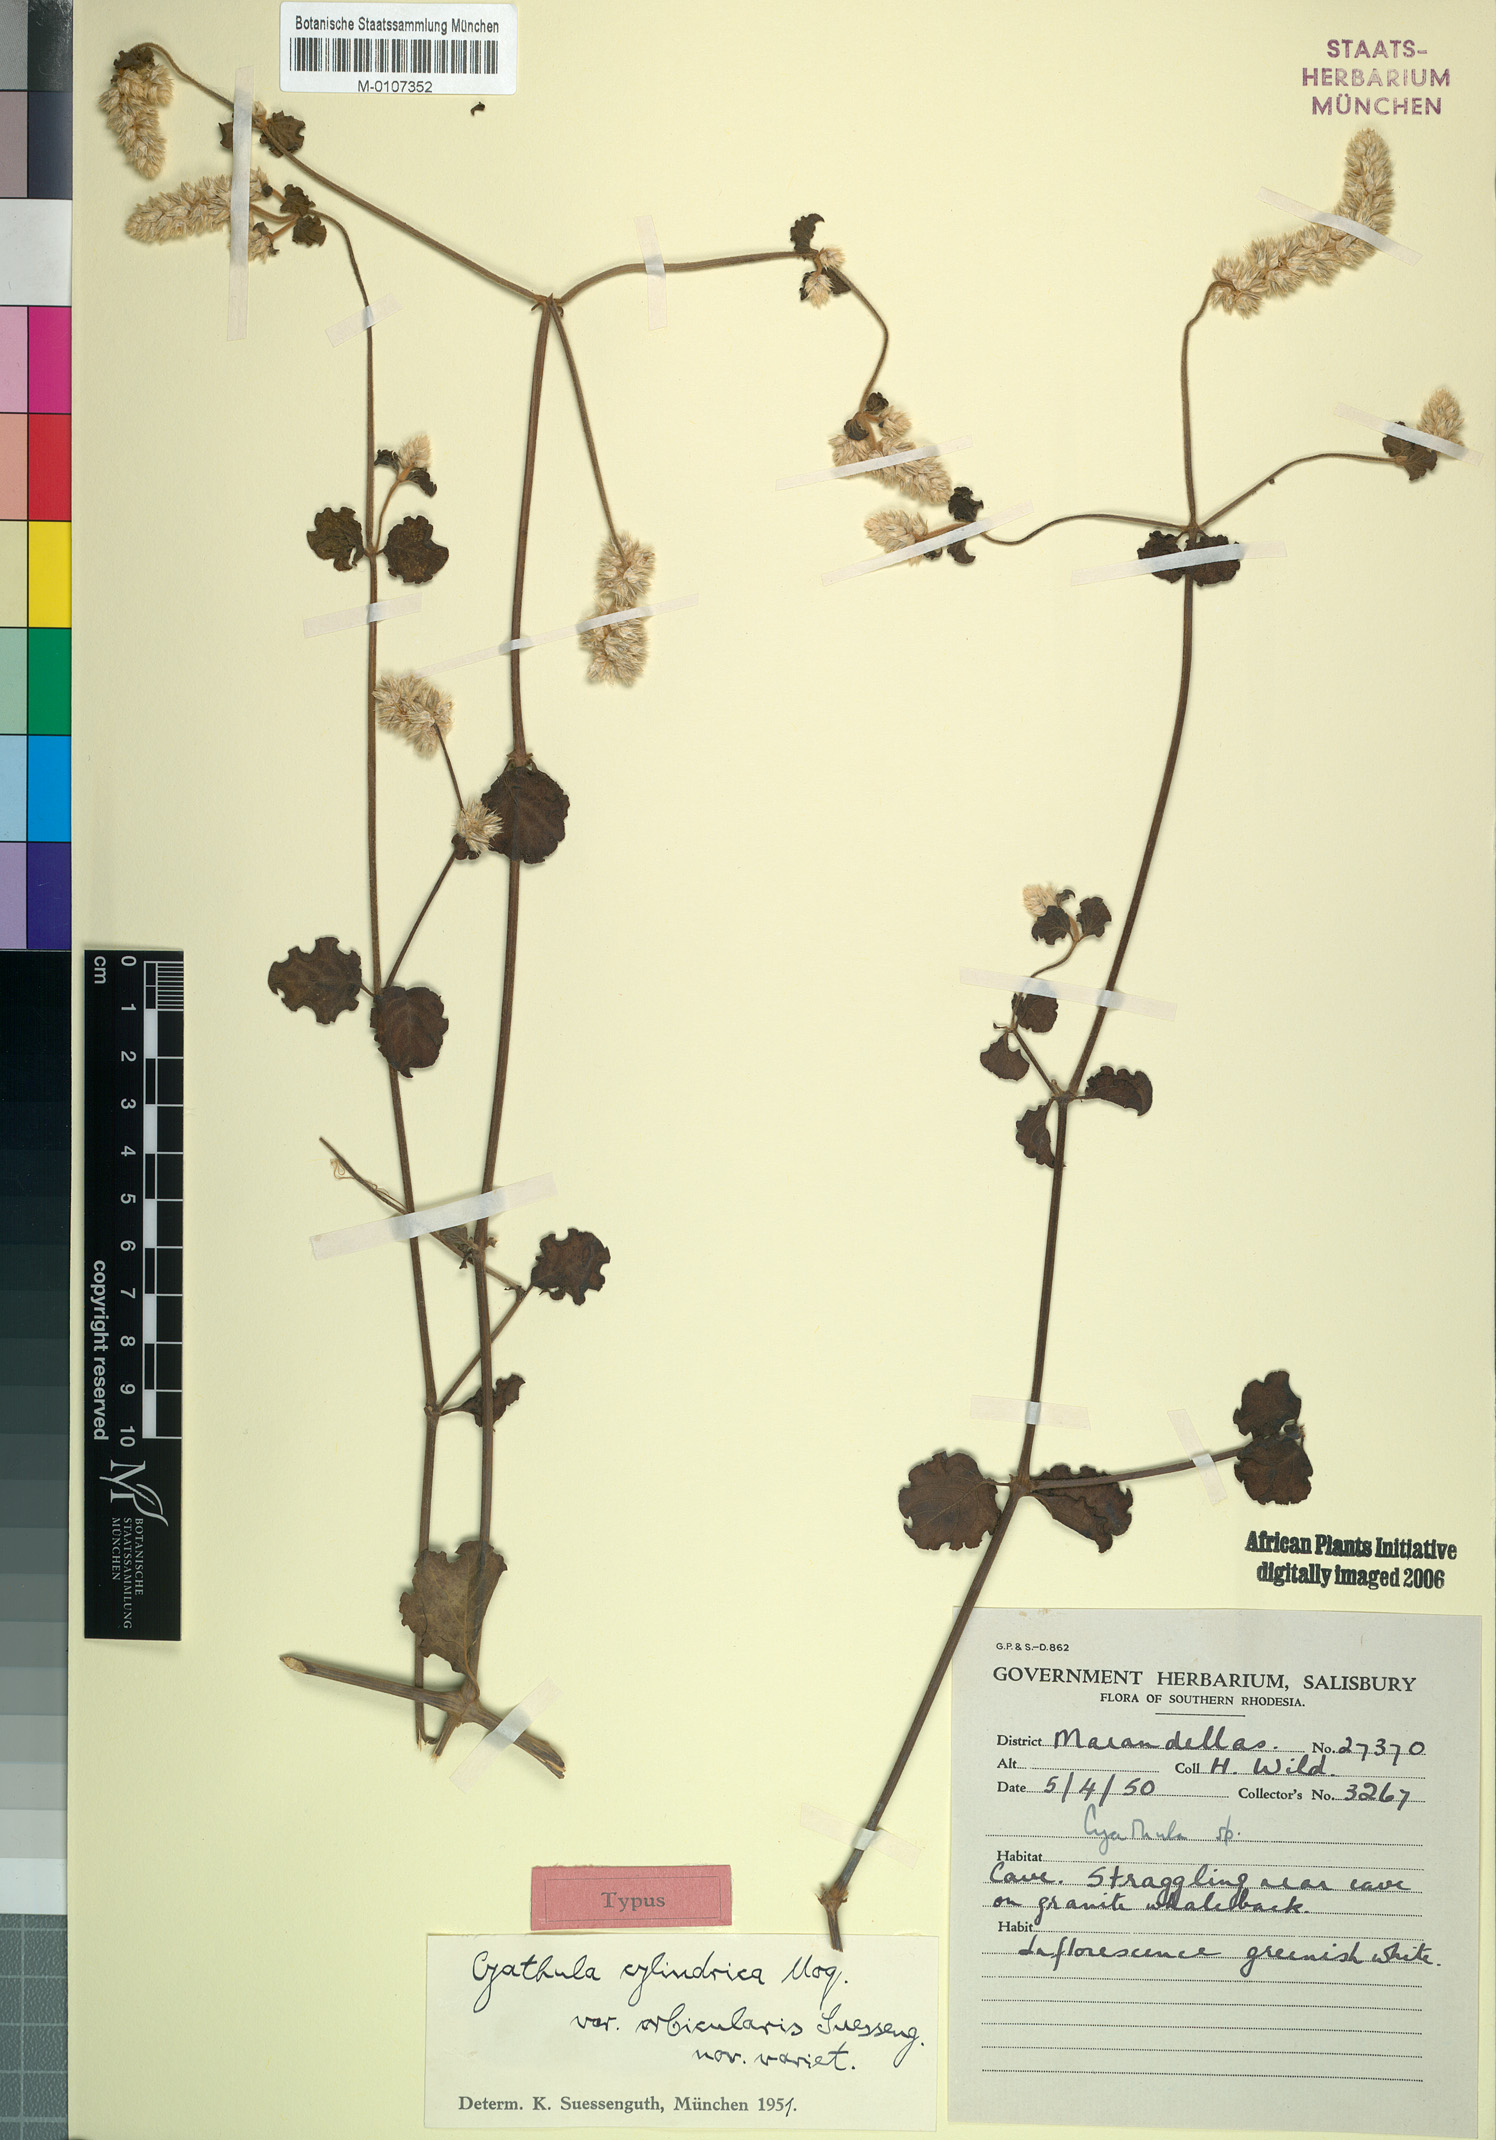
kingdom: Plantae
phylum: Tracheophyta
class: Magnoliopsida
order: Caryophyllales
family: Amaranthaceae
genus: Cyathula
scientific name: Cyathula cylindrica
